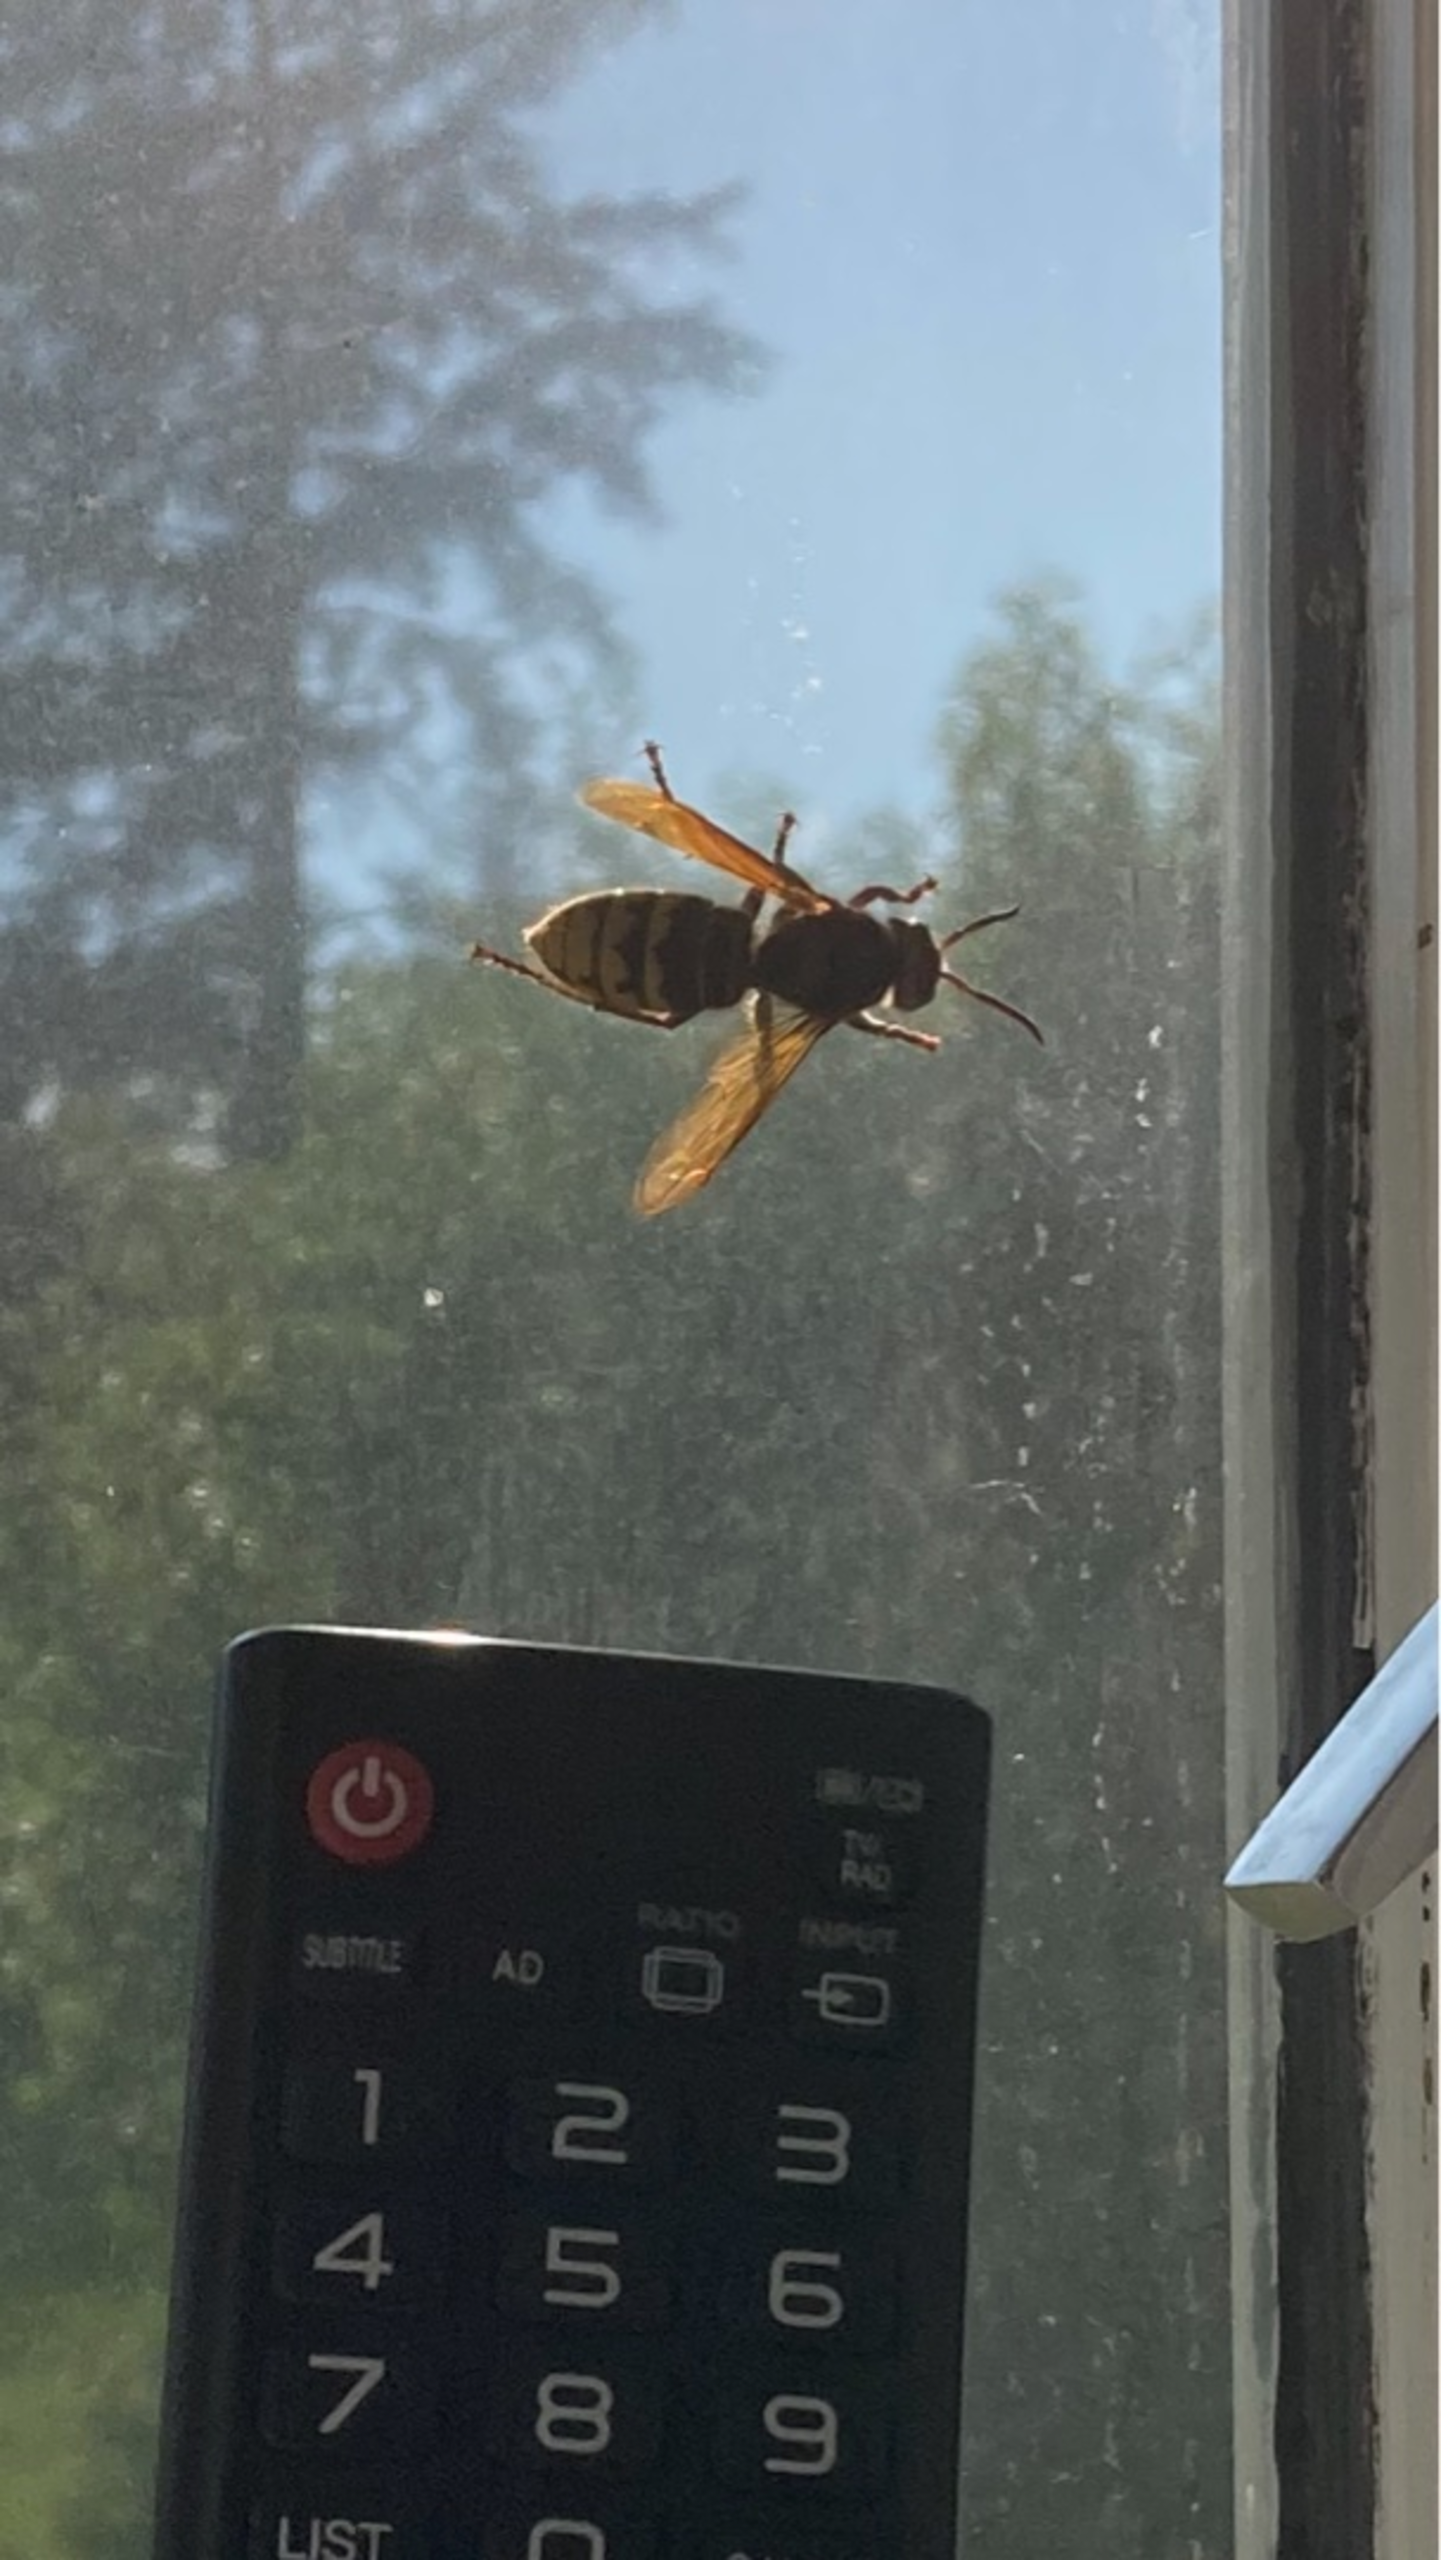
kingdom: Animalia
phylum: Arthropoda
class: Insecta
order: Hymenoptera
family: Vespidae
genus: Vespa
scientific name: Vespa crabro
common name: Stor gedehams
